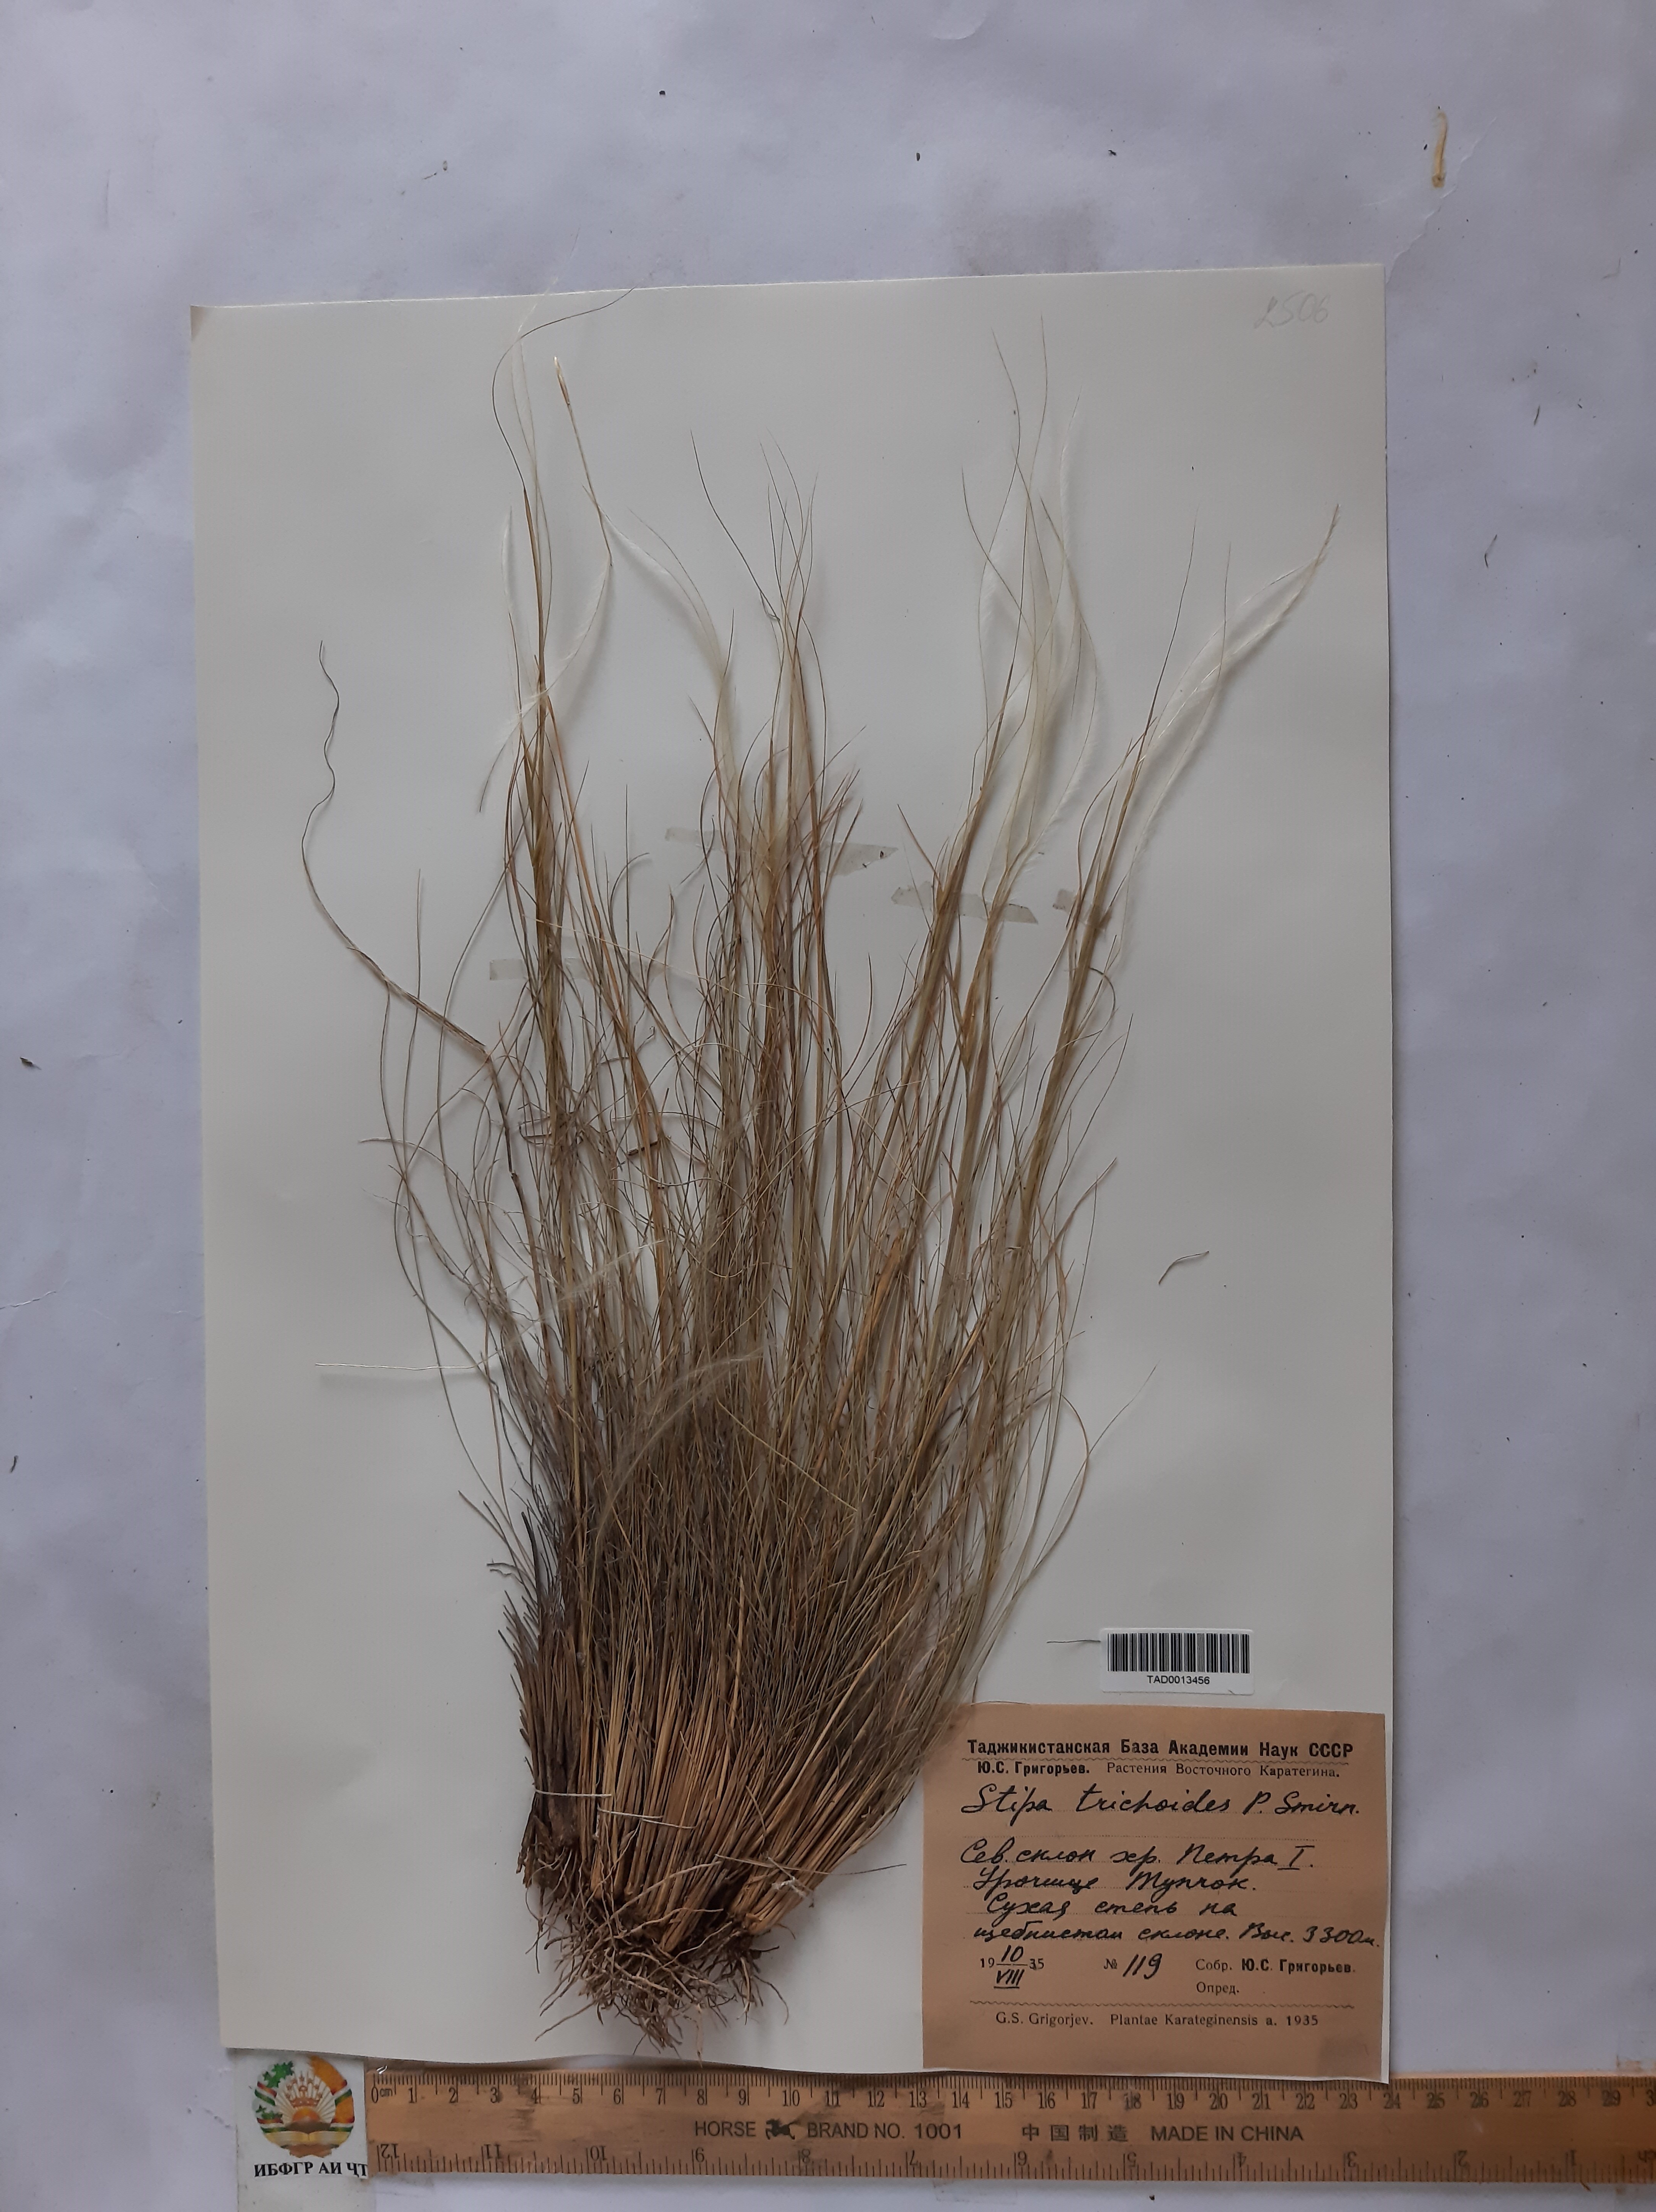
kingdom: Plantae
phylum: Tracheophyta
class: Liliopsida
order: Poales
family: Poaceae
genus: Stipa
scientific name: Stipa trichoides
